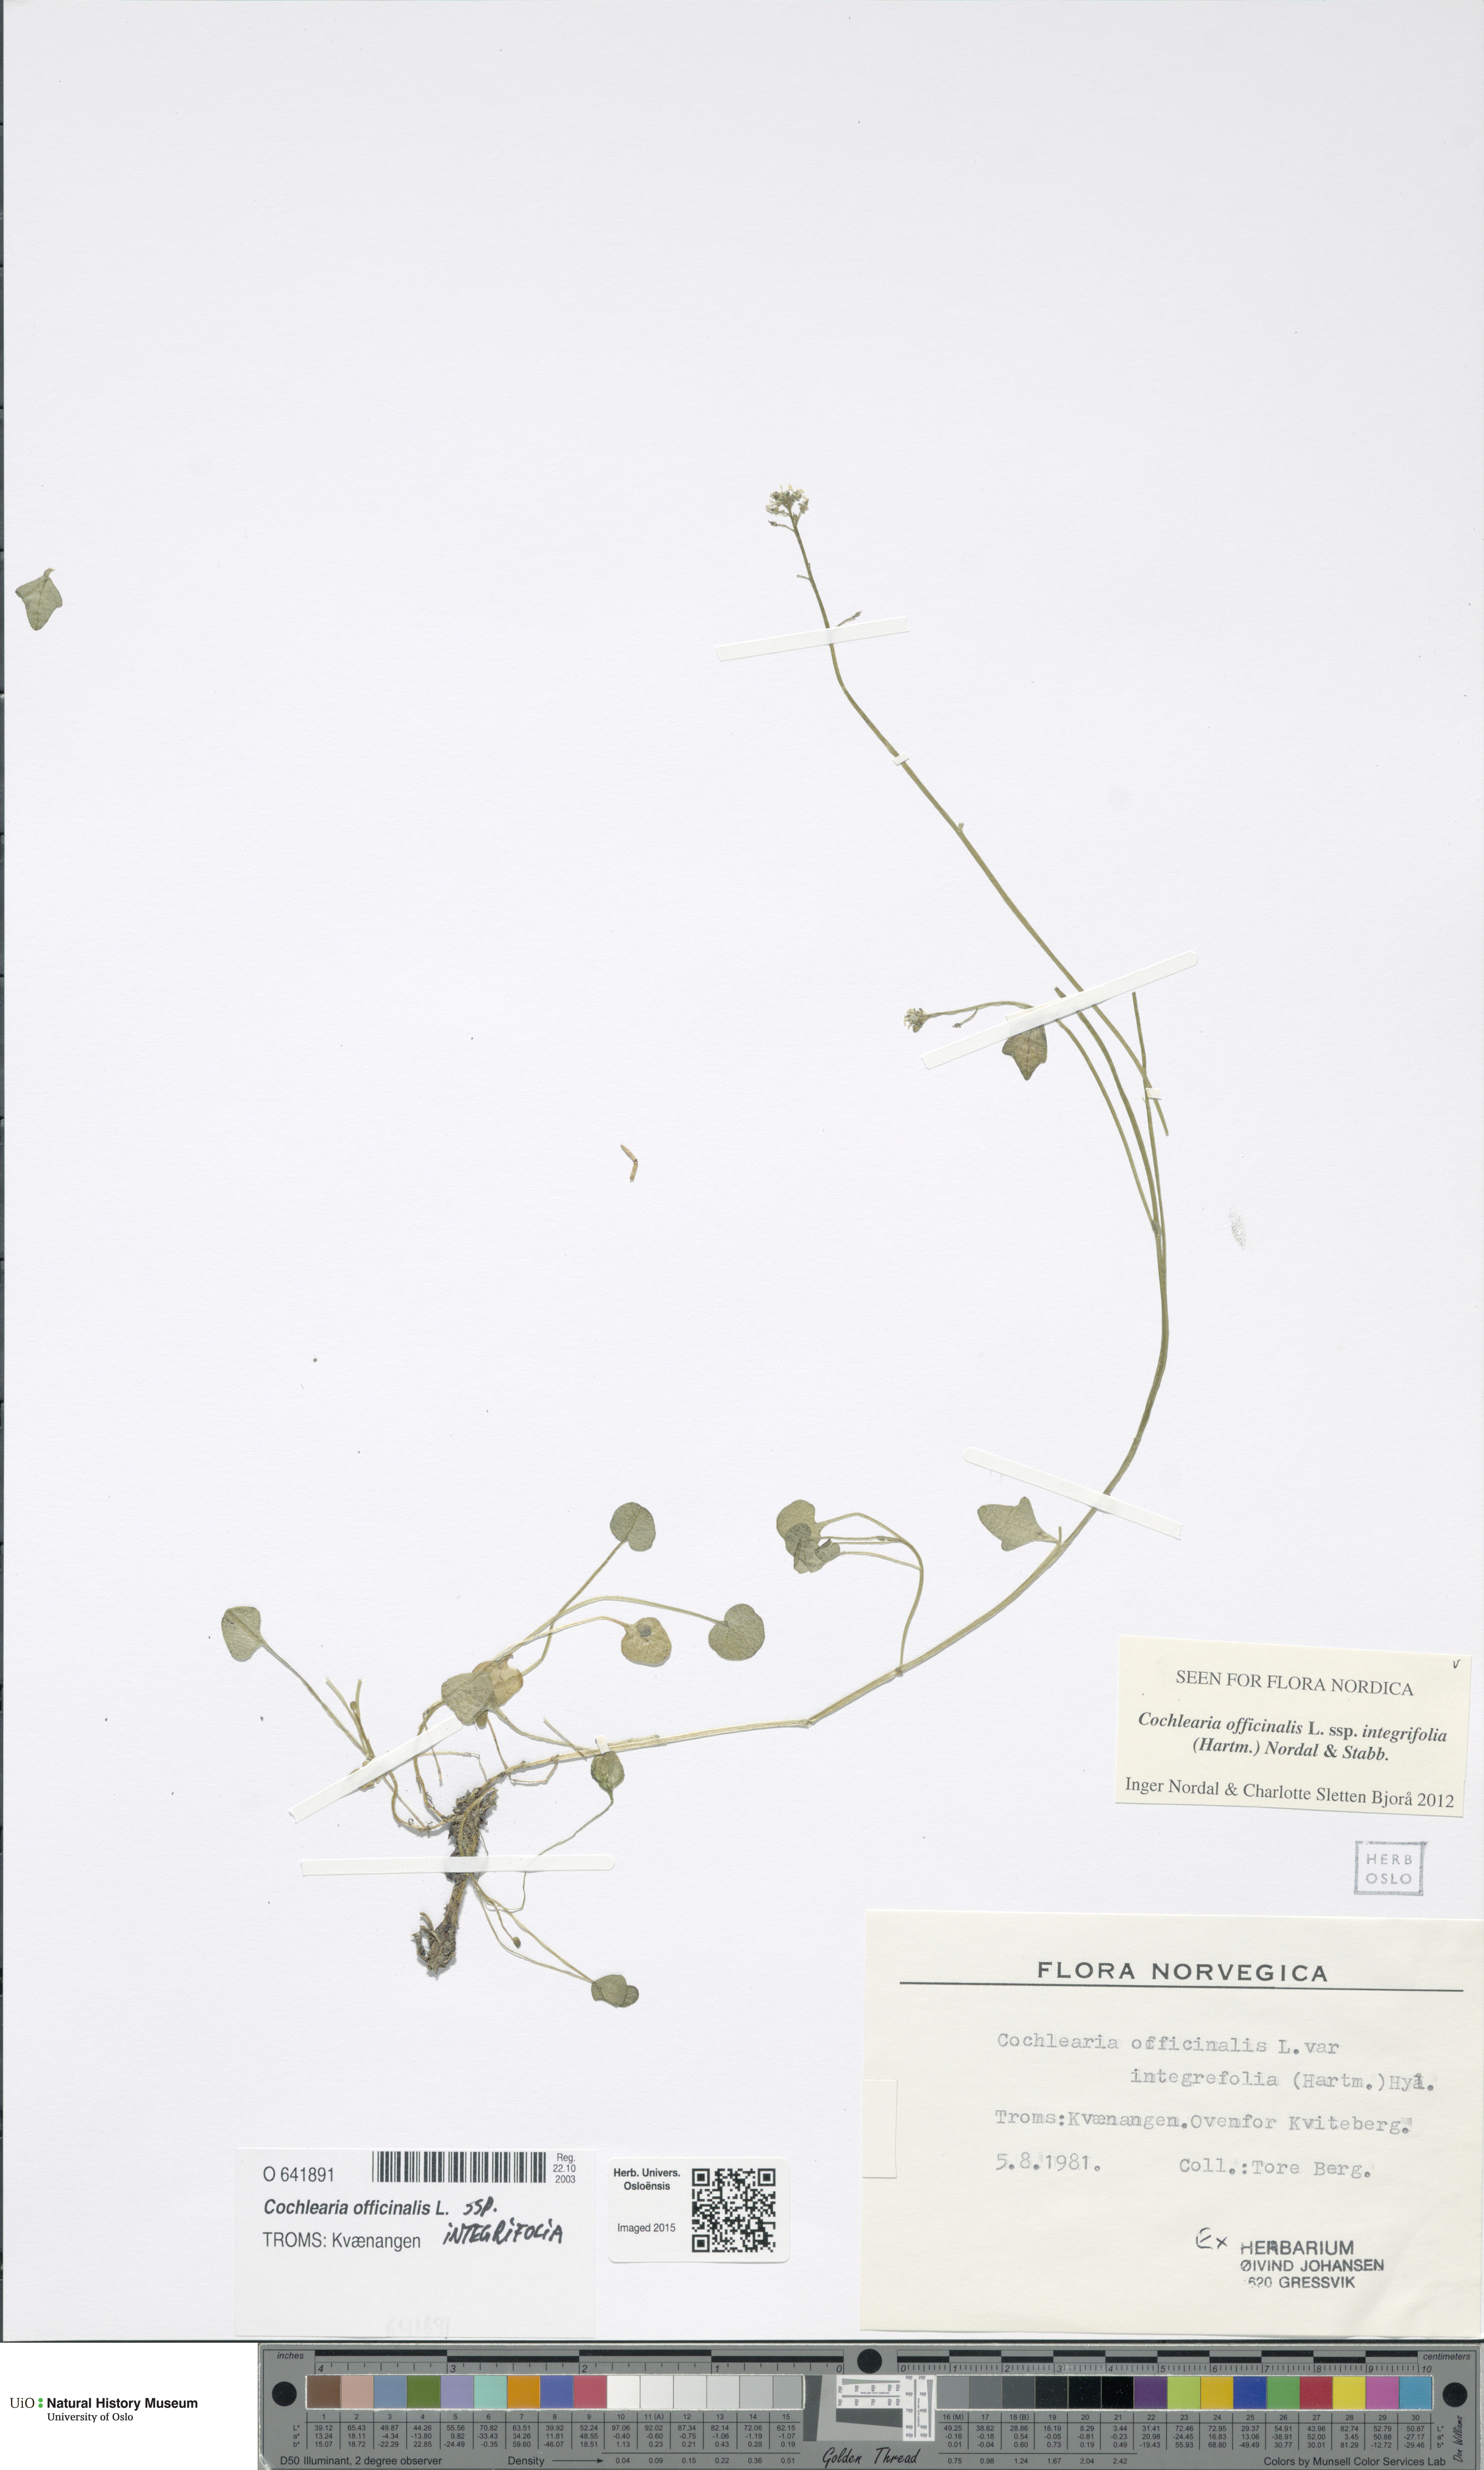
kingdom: Plantae
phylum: Tracheophyta
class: Magnoliopsida
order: Brassicales
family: Brassicaceae
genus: Cochlearia
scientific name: Cochlearia officinalis
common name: Scurvy-grass
